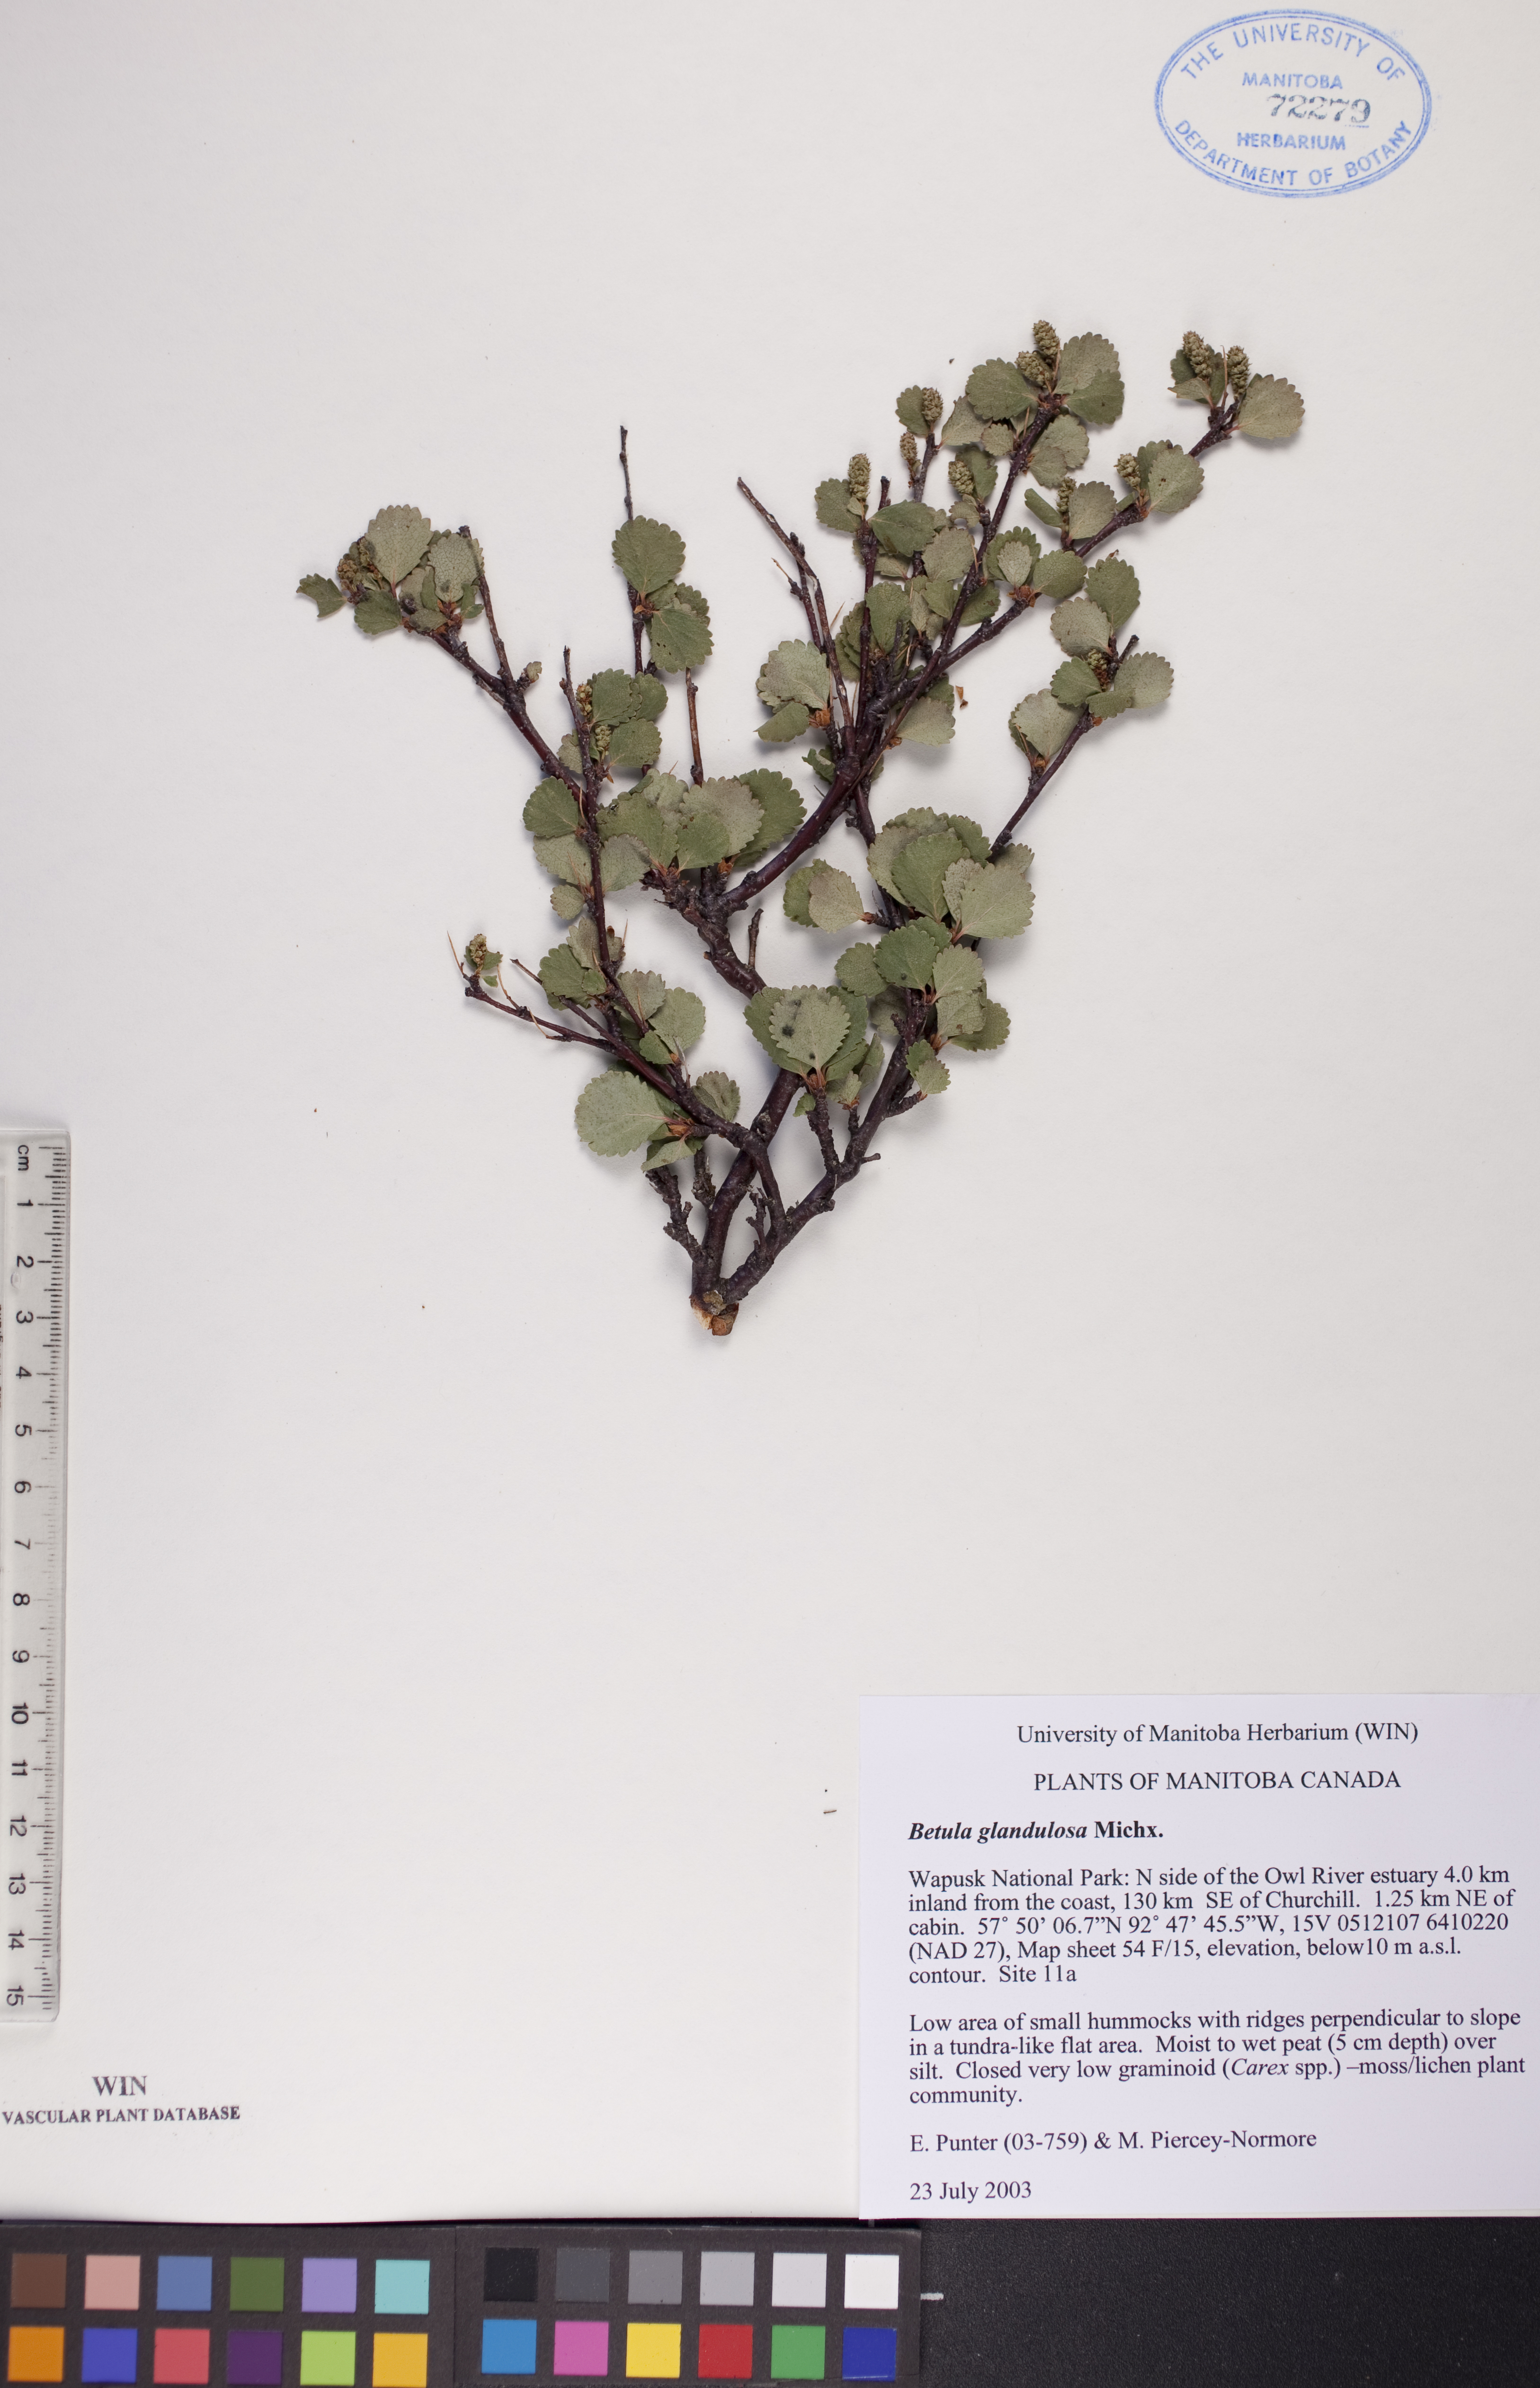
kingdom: Plantae
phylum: Tracheophyta
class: Magnoliopsida
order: Fagales
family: Betulaceae
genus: Betula
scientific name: Betula glandulosa
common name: Dwarf birch
